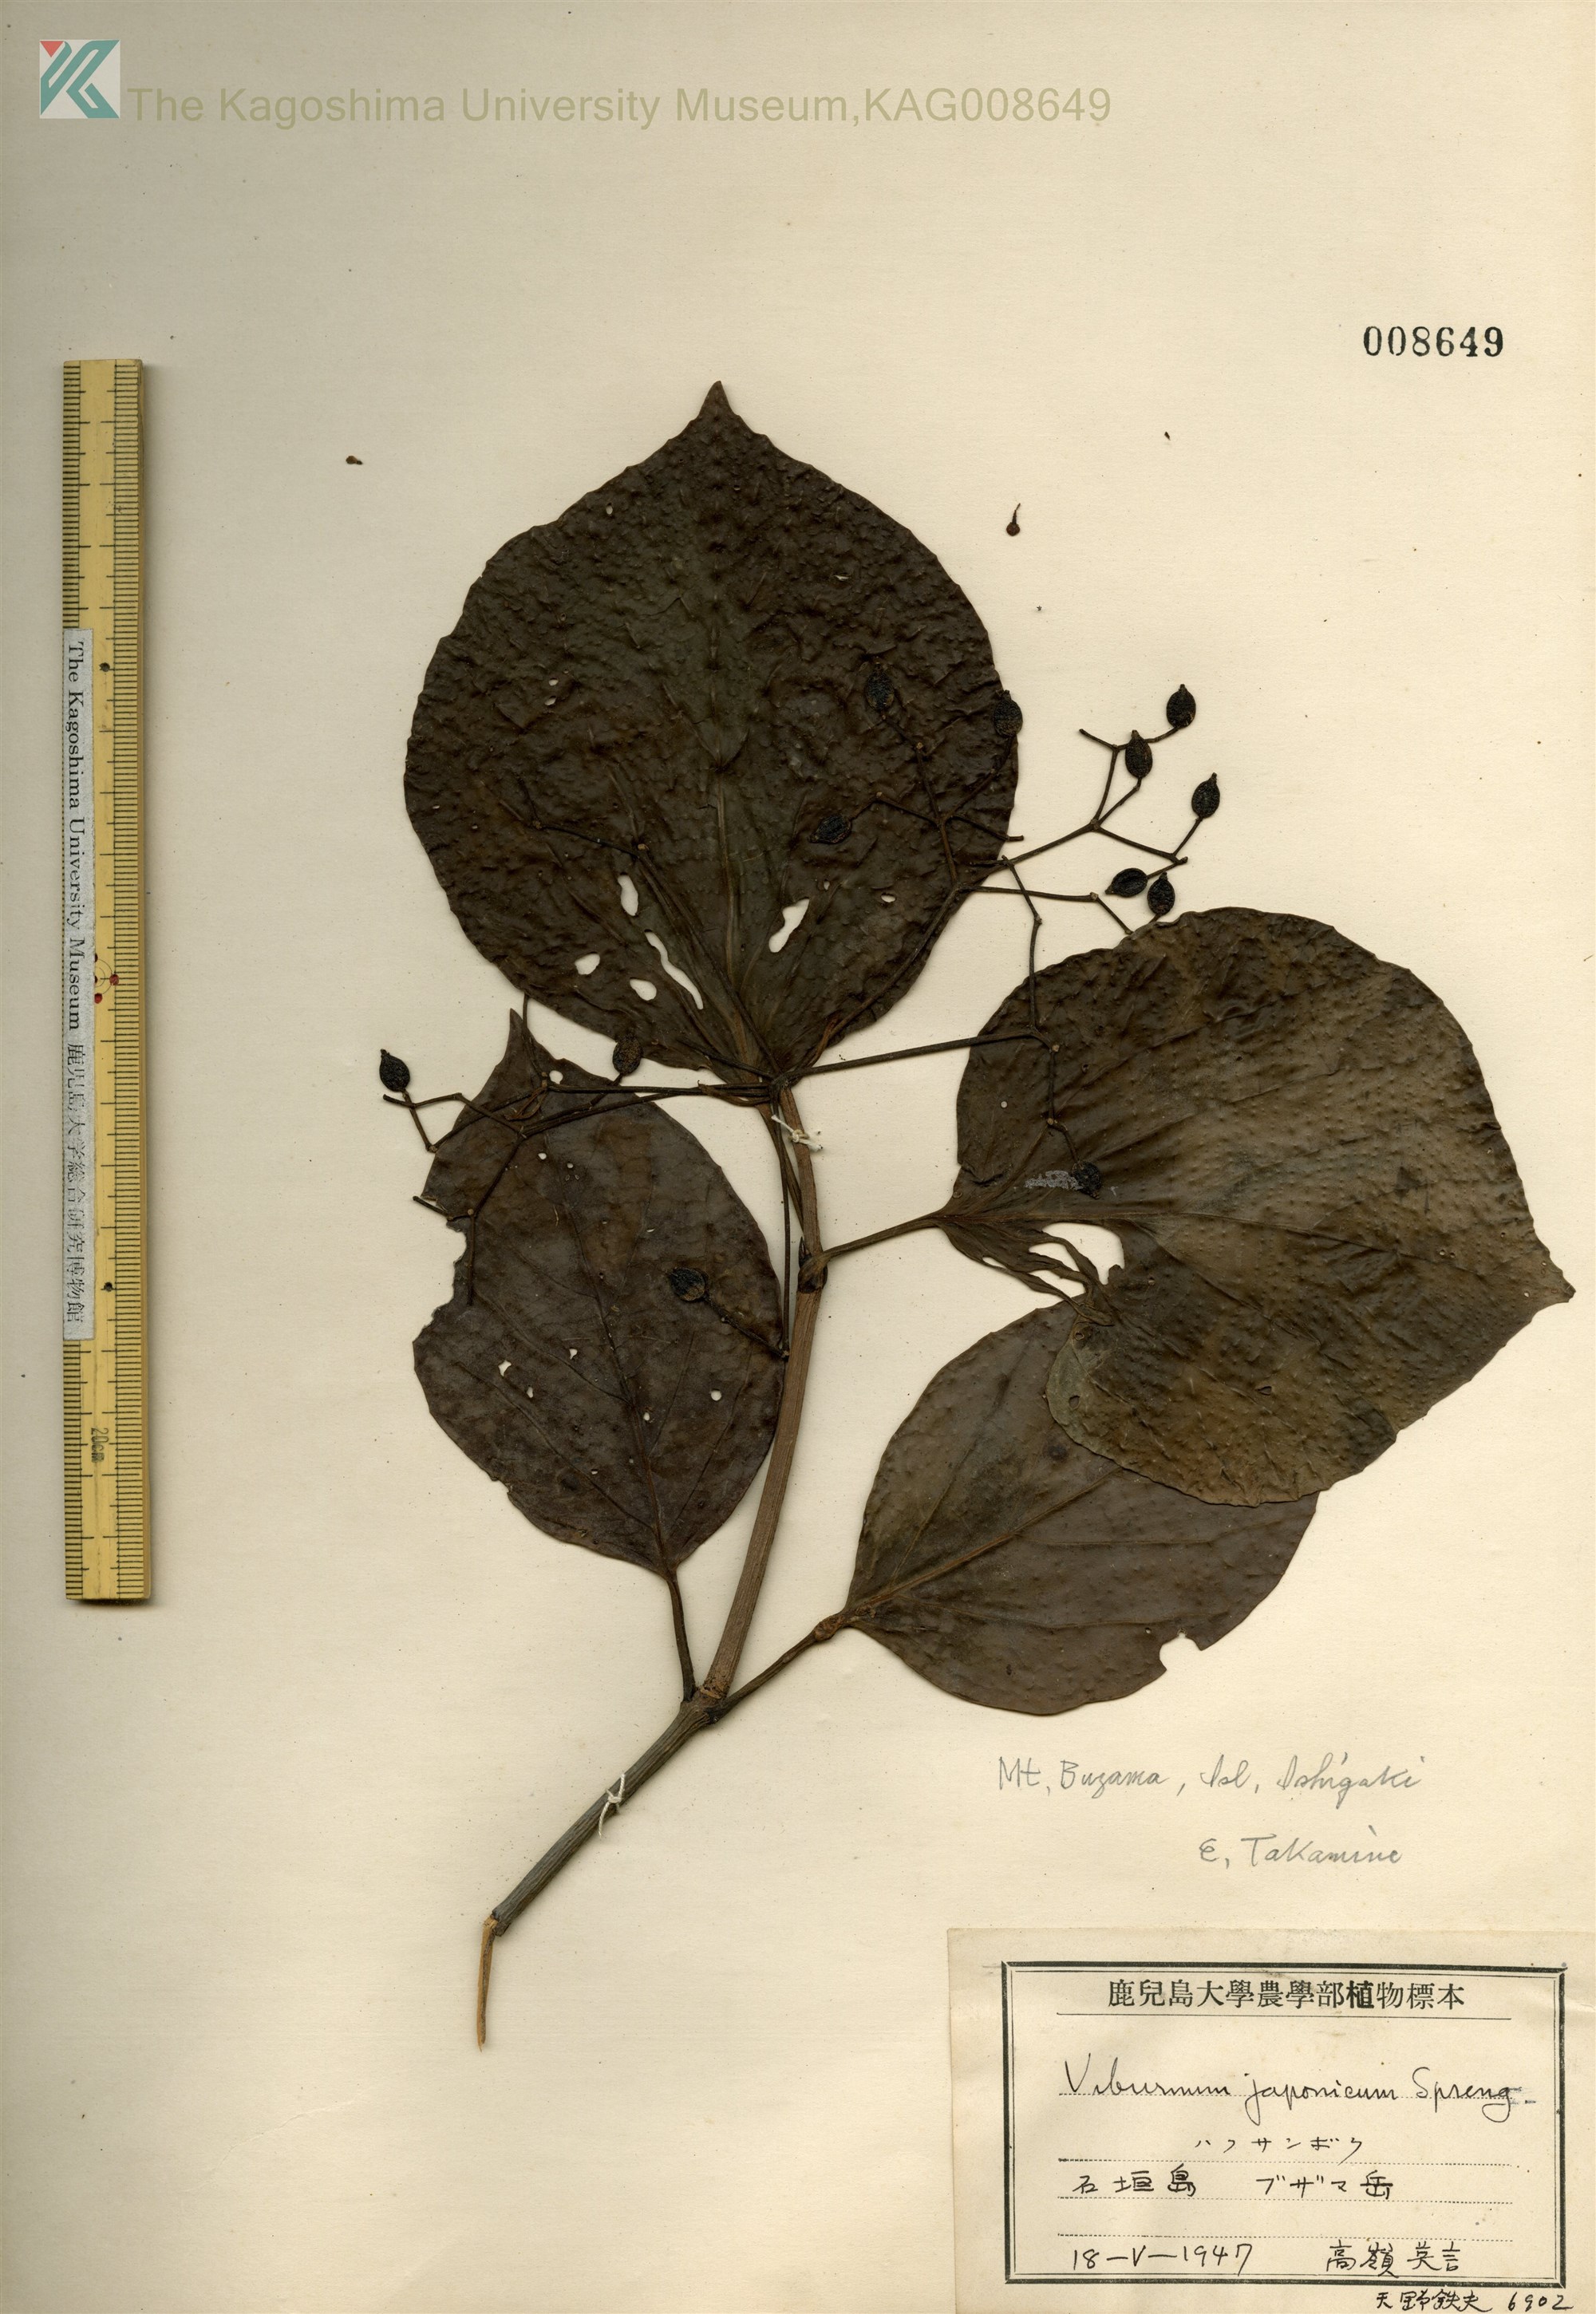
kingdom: Plantae
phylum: Tracheophyta
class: Magnoliopsida
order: Dipsacales
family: Viburnaceae
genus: Viburnum
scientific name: Viburnum japonicum
